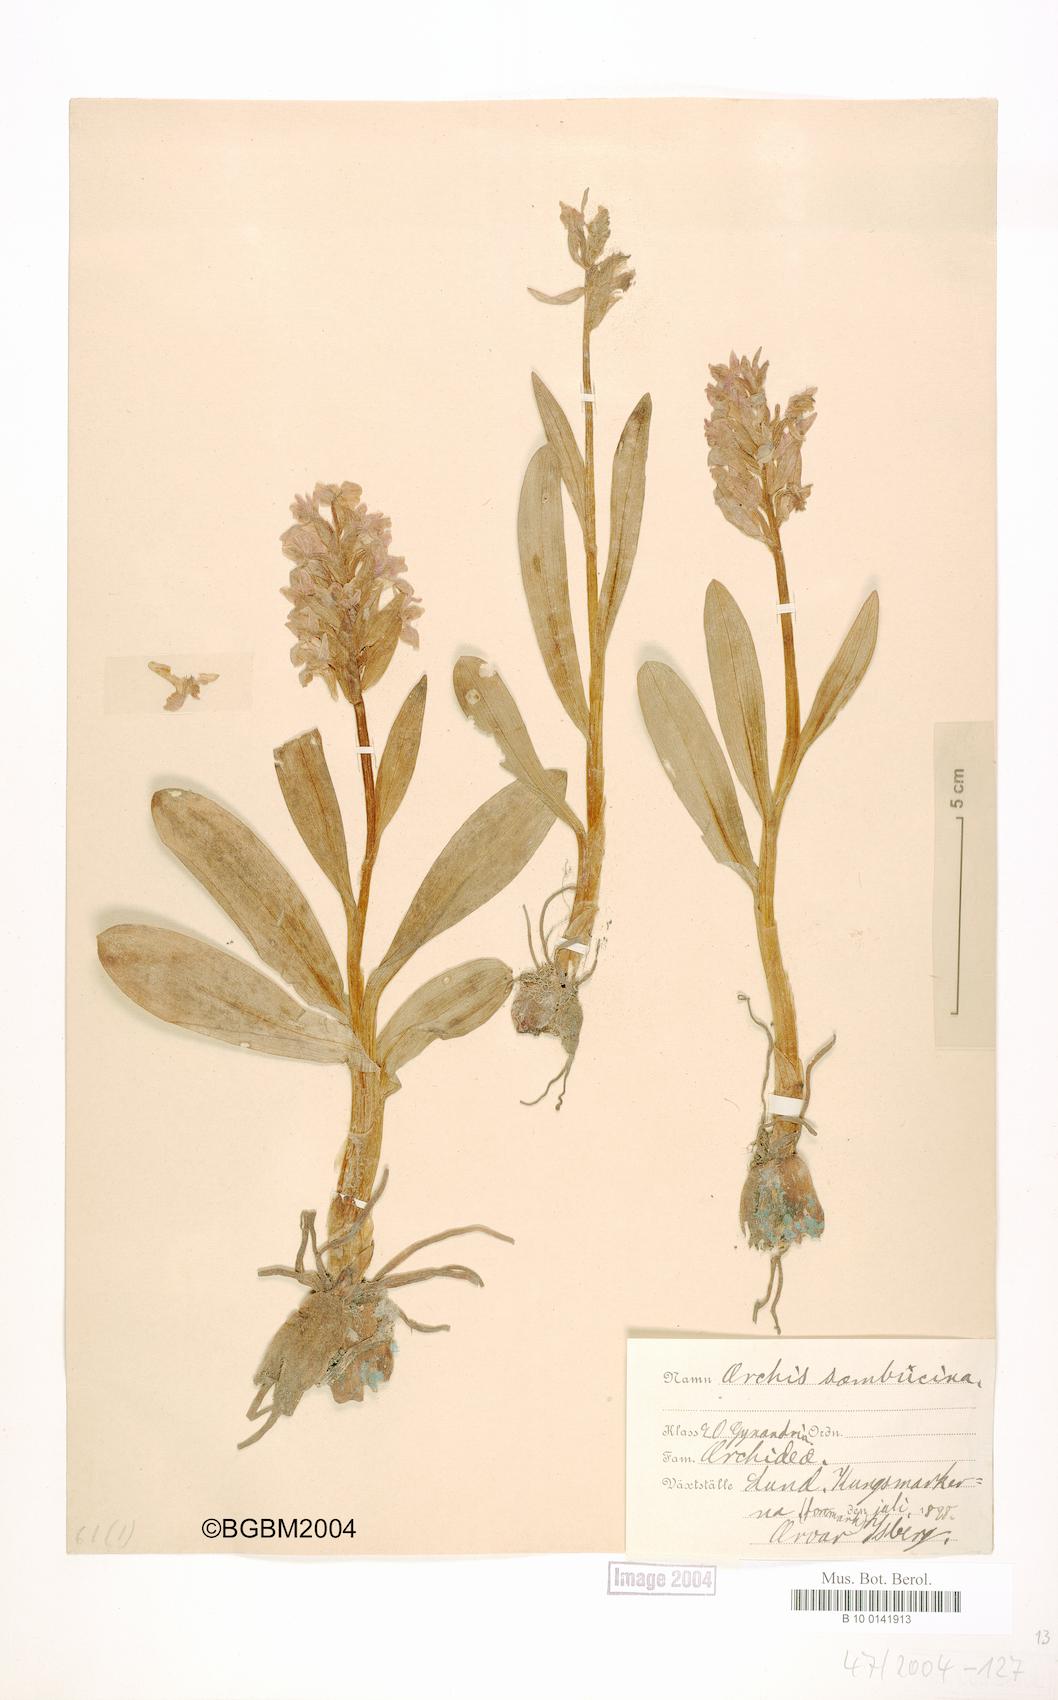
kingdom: Plantae
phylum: Tracheophyta
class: Liliopsida
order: Asparagales
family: Orchidaceae
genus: Dactylorhiza
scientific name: Dactylorhiza sambucina
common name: Elder-flowered orchid
